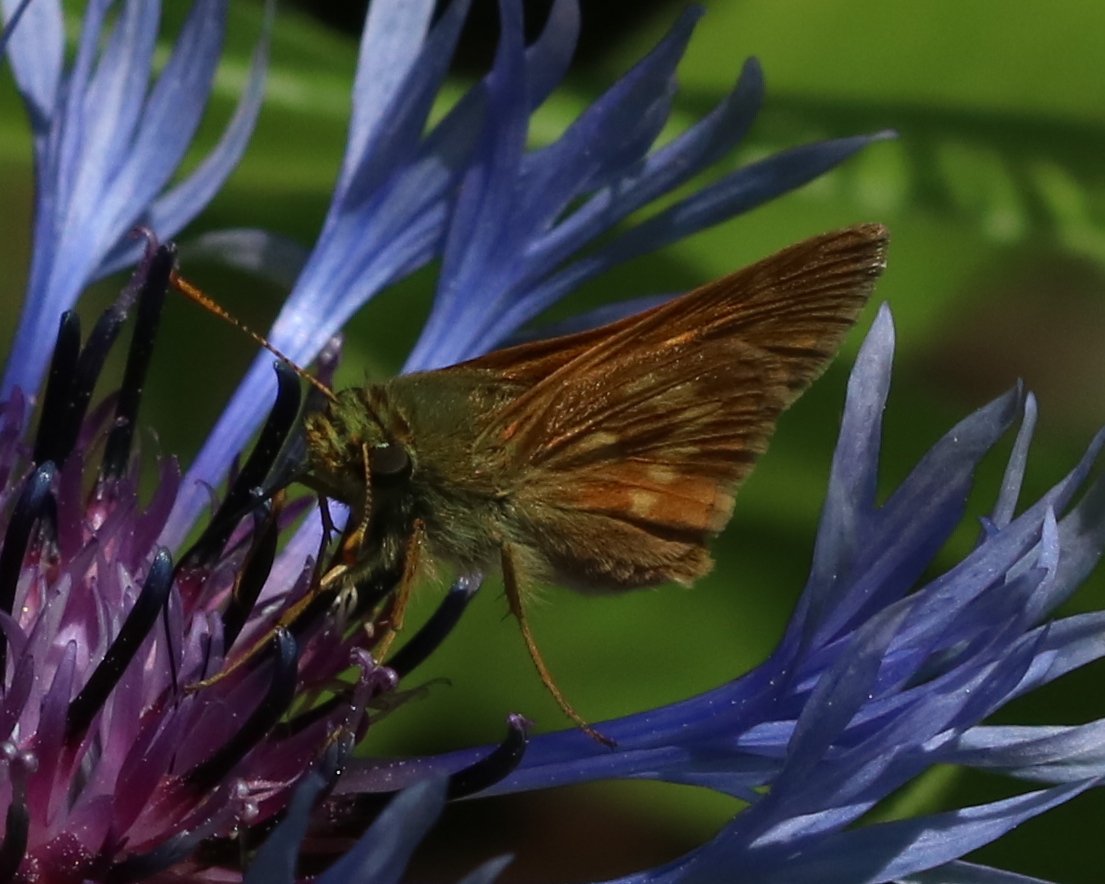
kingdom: Animalia
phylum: Arthropoda
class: Insecta
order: Lepidoptera
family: Hesperiidae
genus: Polites
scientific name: Polites
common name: Crossline Skipper
